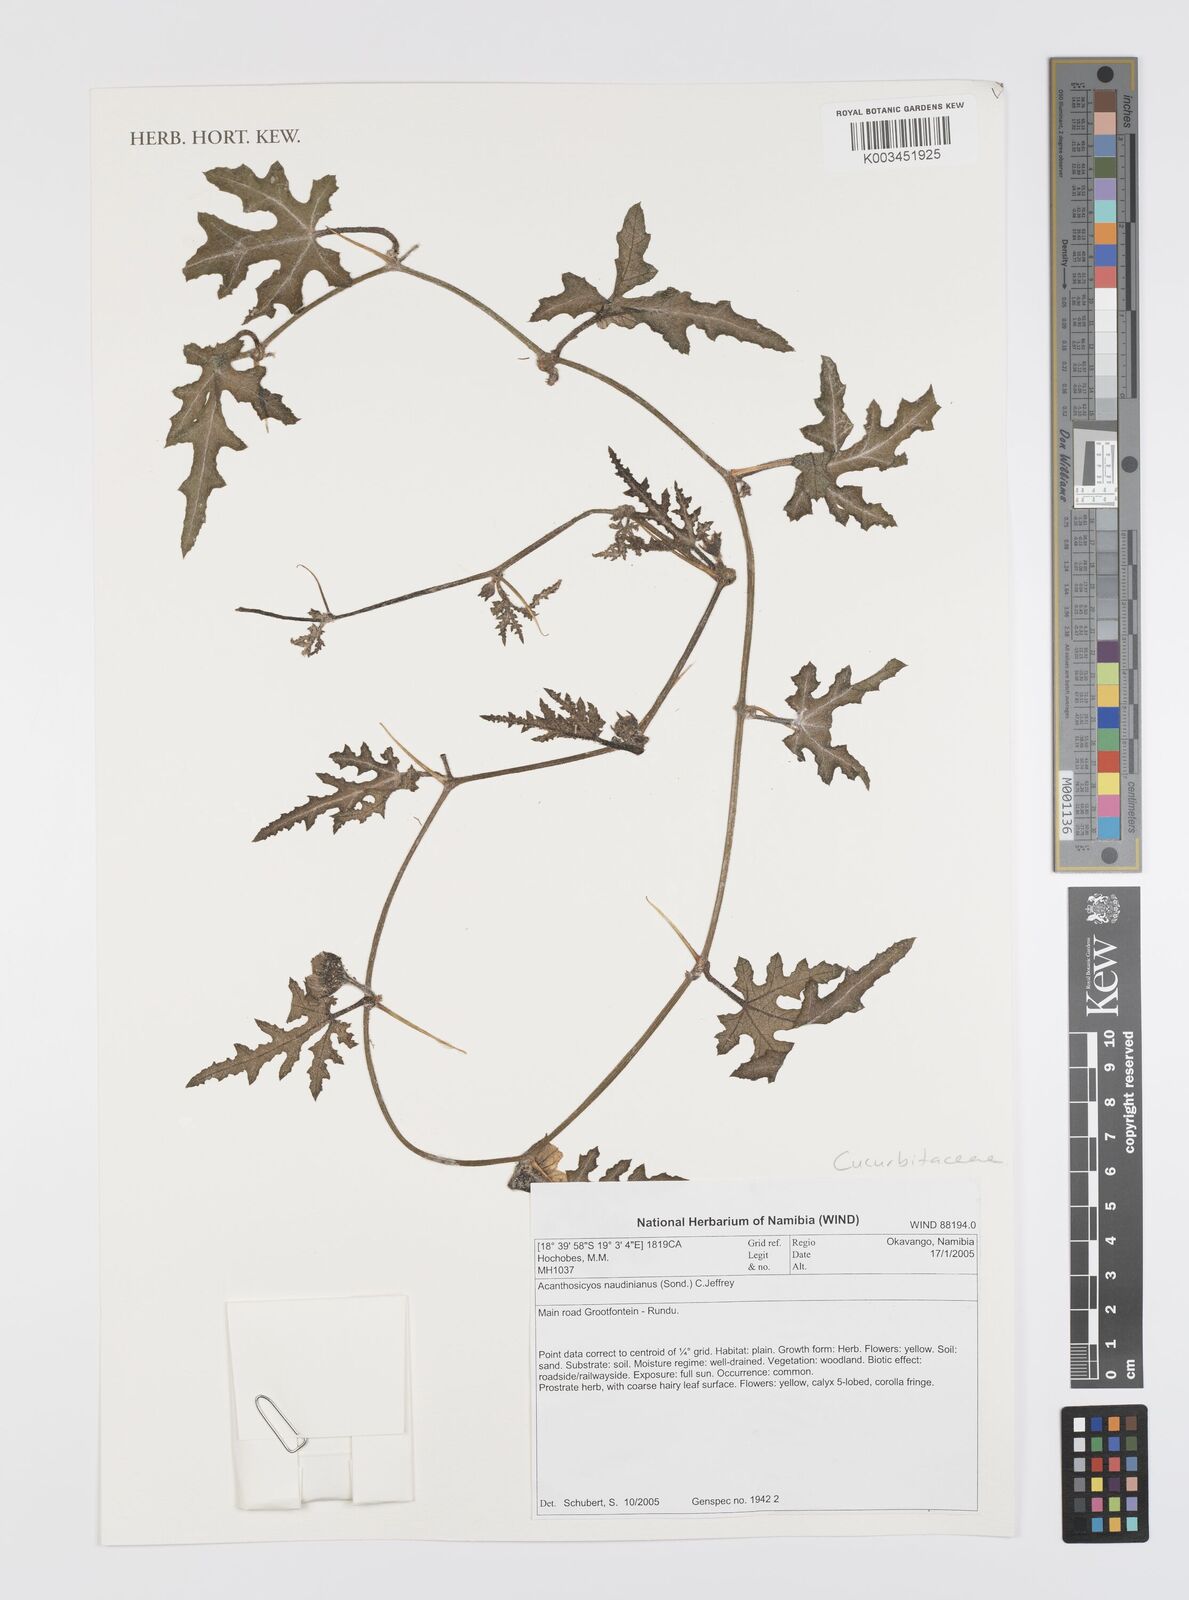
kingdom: Plantae
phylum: Tracheophyta
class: Magnoliopsida
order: Cucurbitales
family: Cucurbitaceae
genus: Citrullus
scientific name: Citrullus naudinianus
